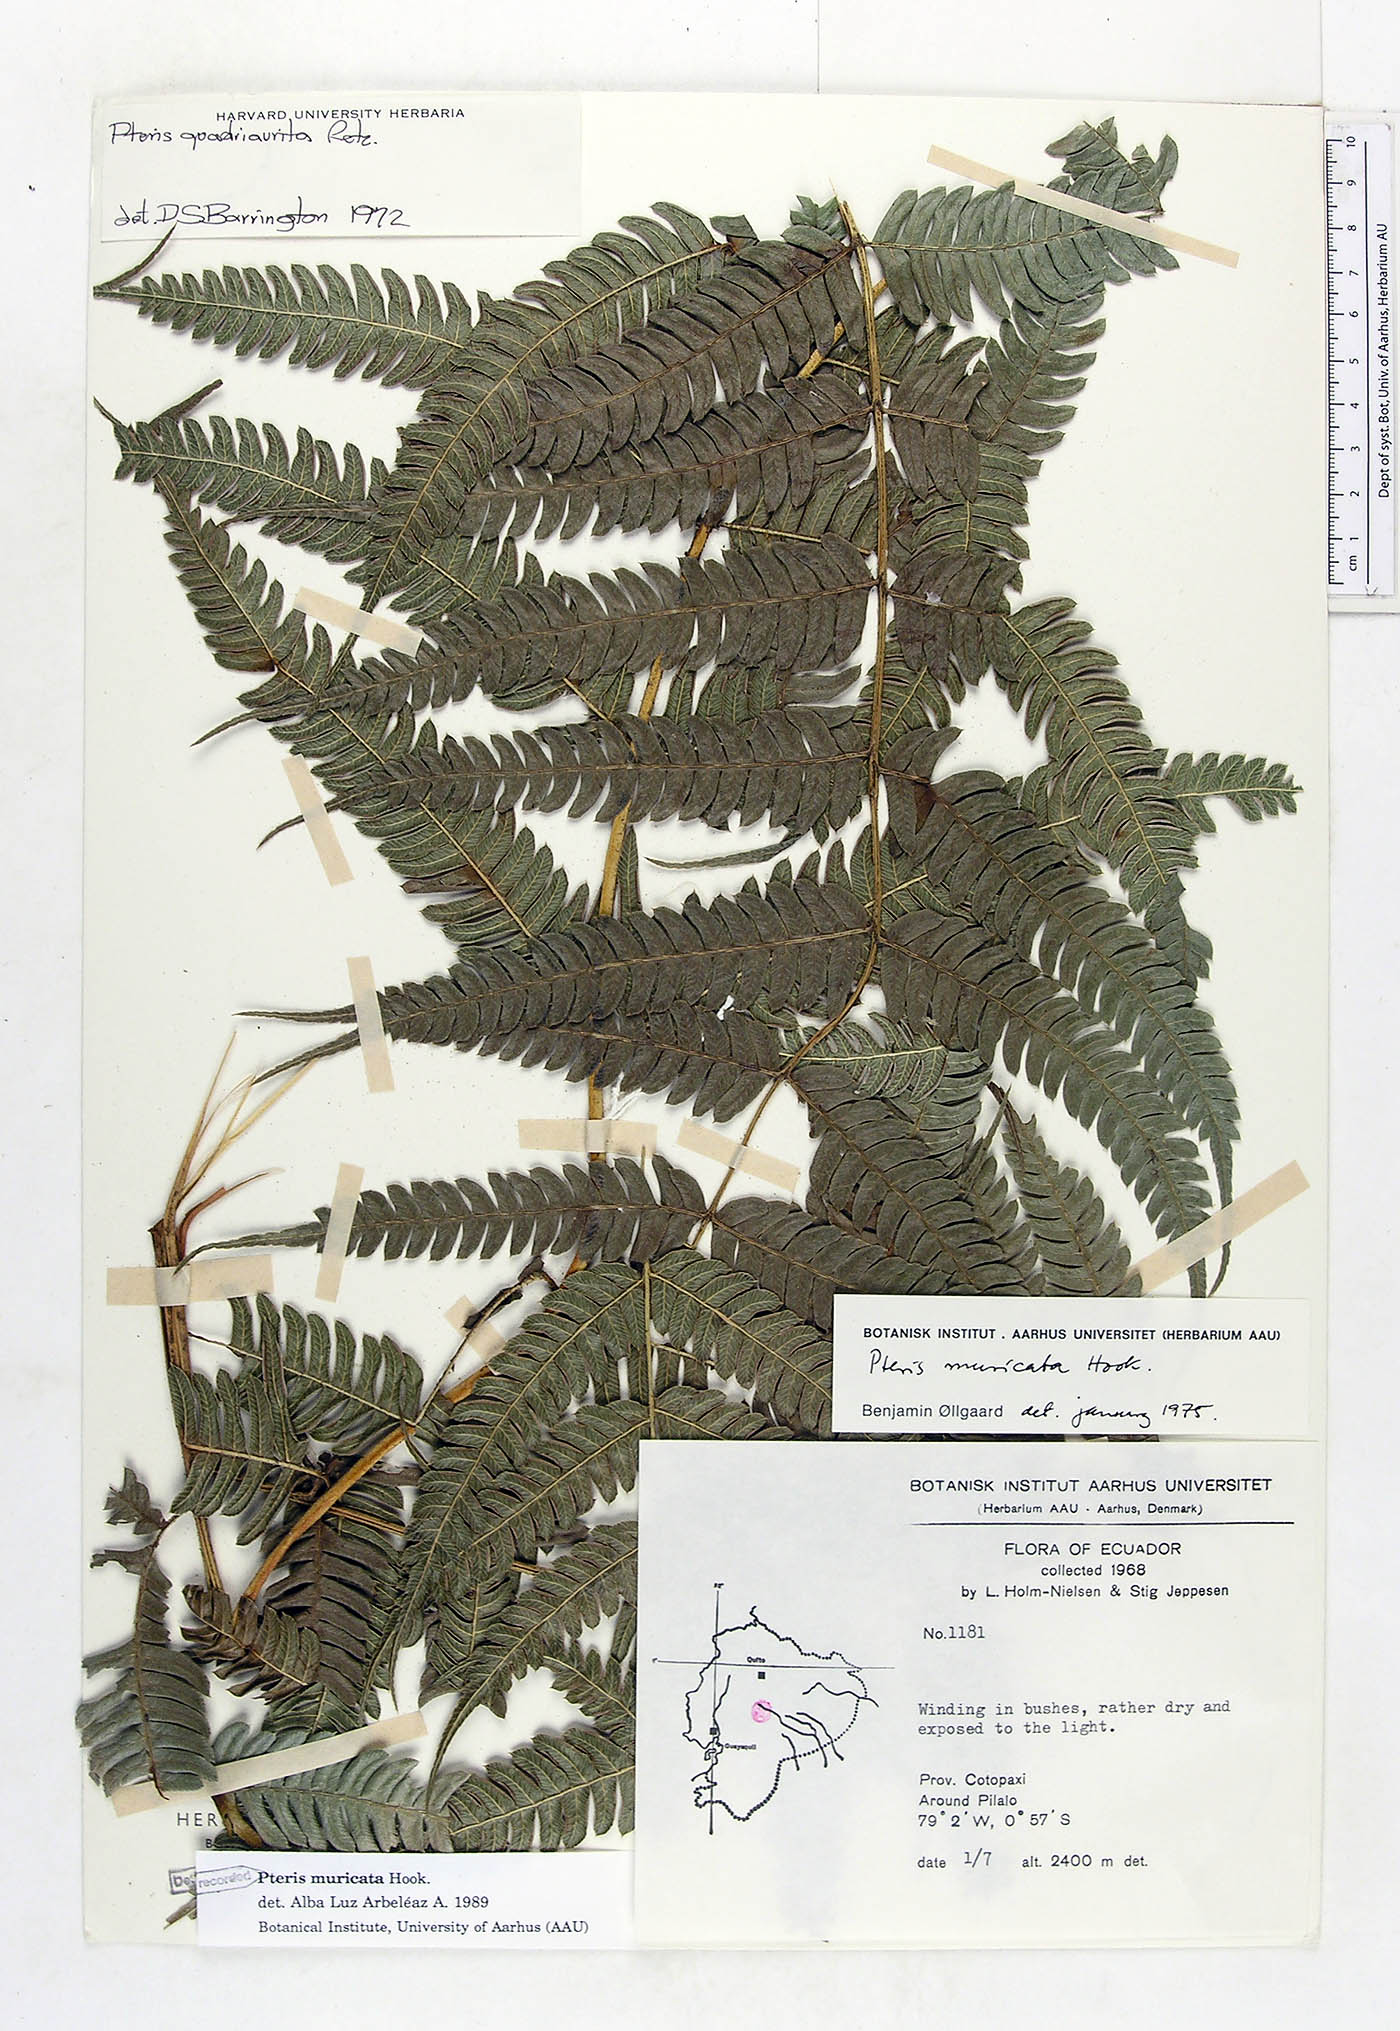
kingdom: Plantae
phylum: Tracheophyta
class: Polypodiopsida
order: Polypodiales
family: Pteridaceae
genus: Pteris
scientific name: Pteris muricata
